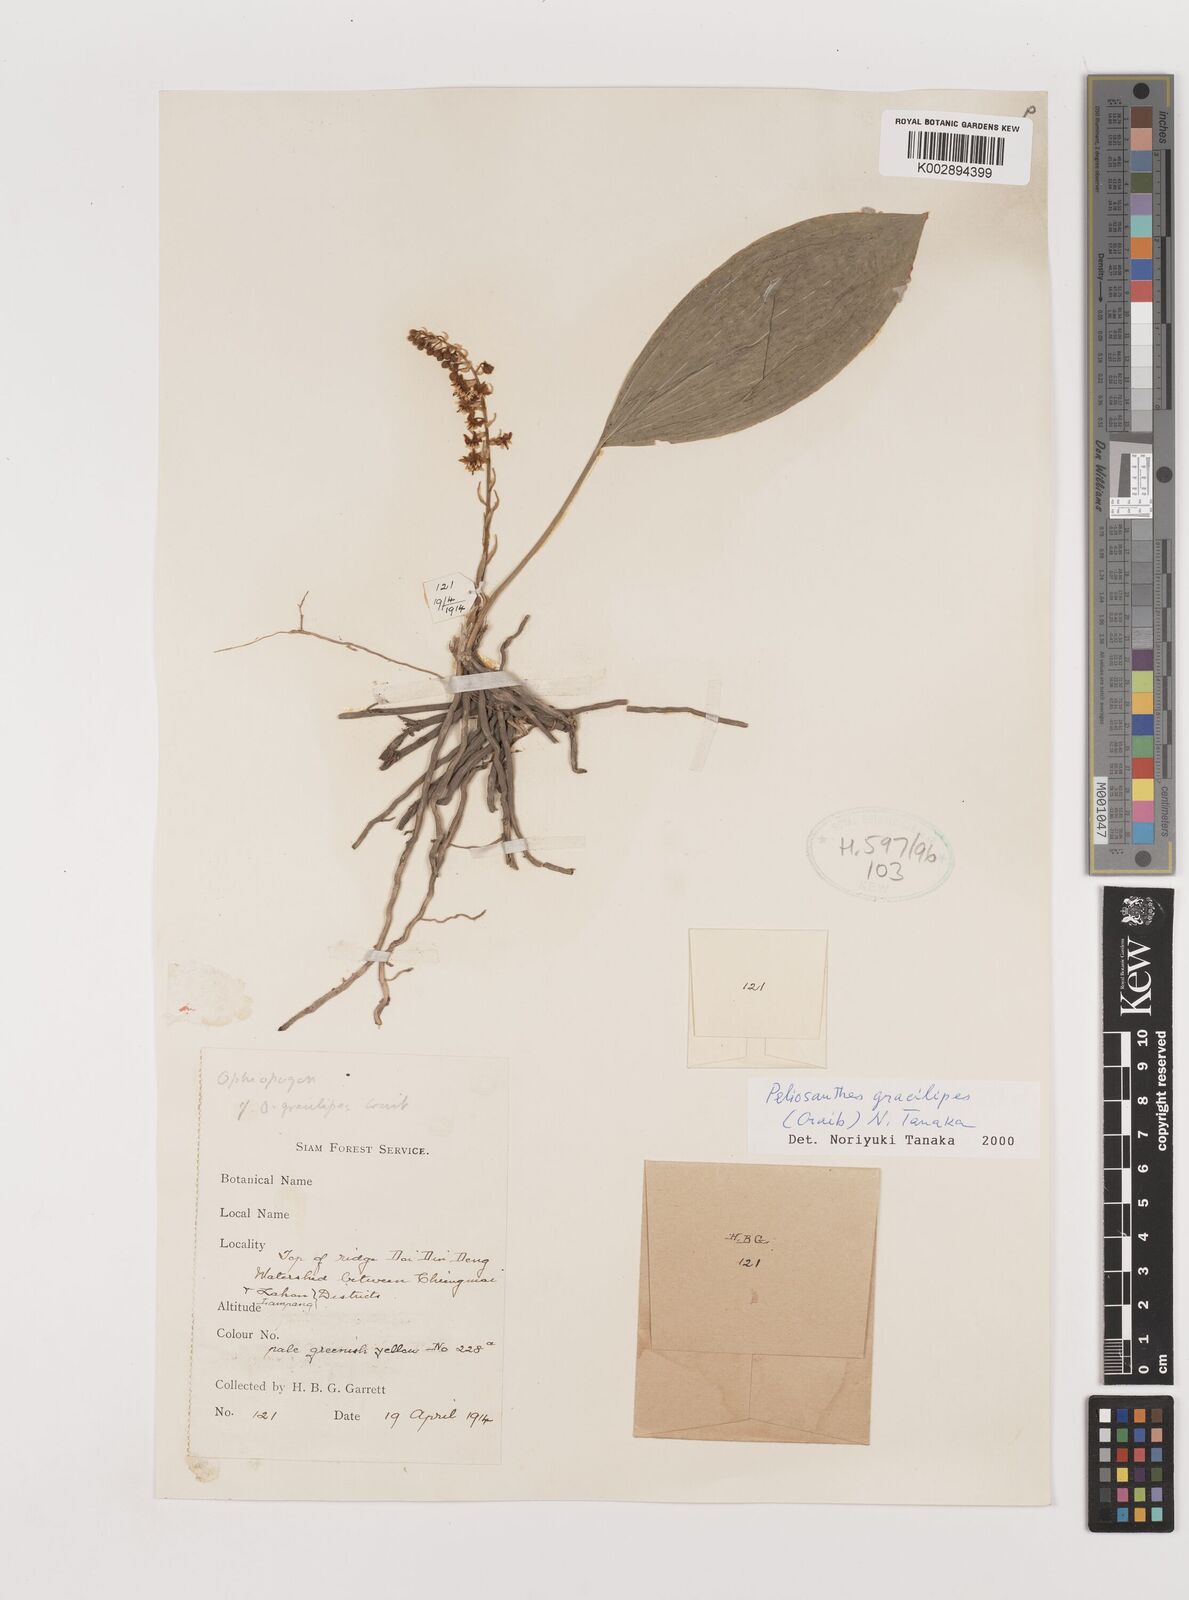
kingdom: Plantae
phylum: Tracheophyta
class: Liliopsida
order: Asparagales
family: Asparagaceae
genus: Peliosanthes
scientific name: Peliosanthes gracilipes
